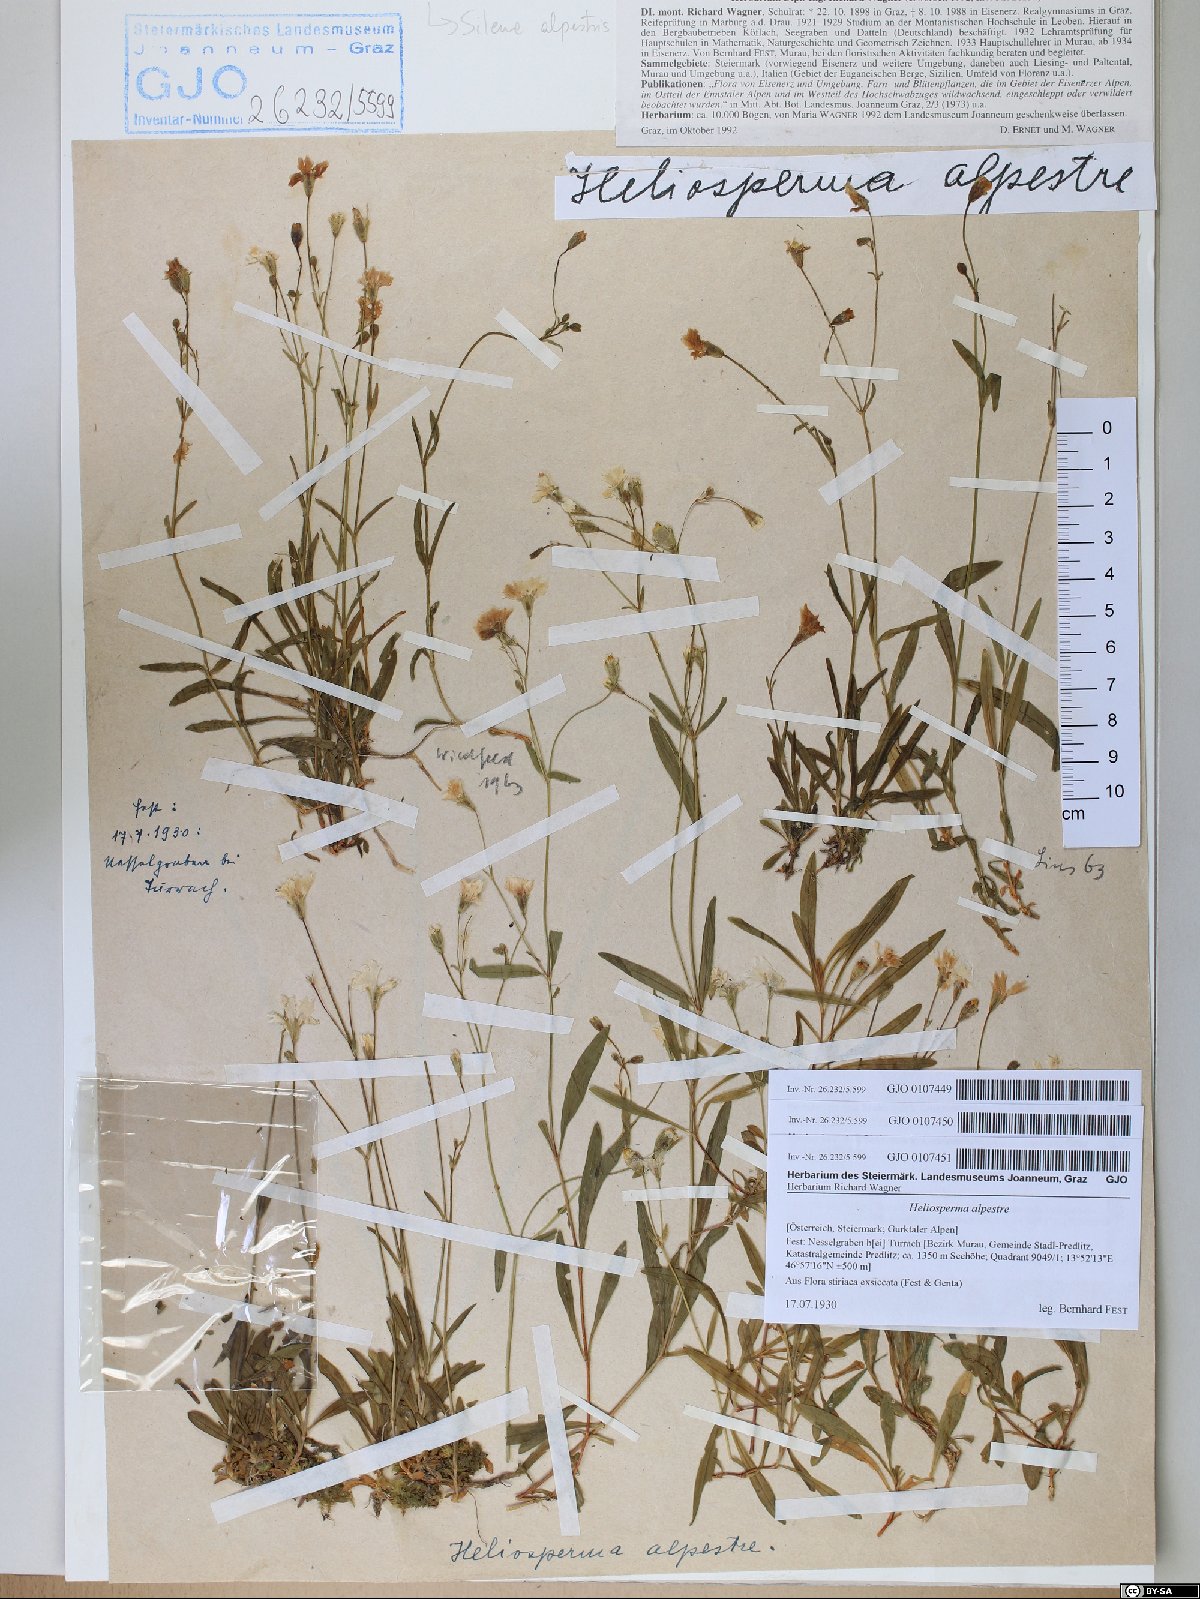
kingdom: Plantae
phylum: Tracheophyta
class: Magnoliopsida
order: Caryophyllales
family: Caryophyllaceae
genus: Heliosperma
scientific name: Heliosperma alpestre
